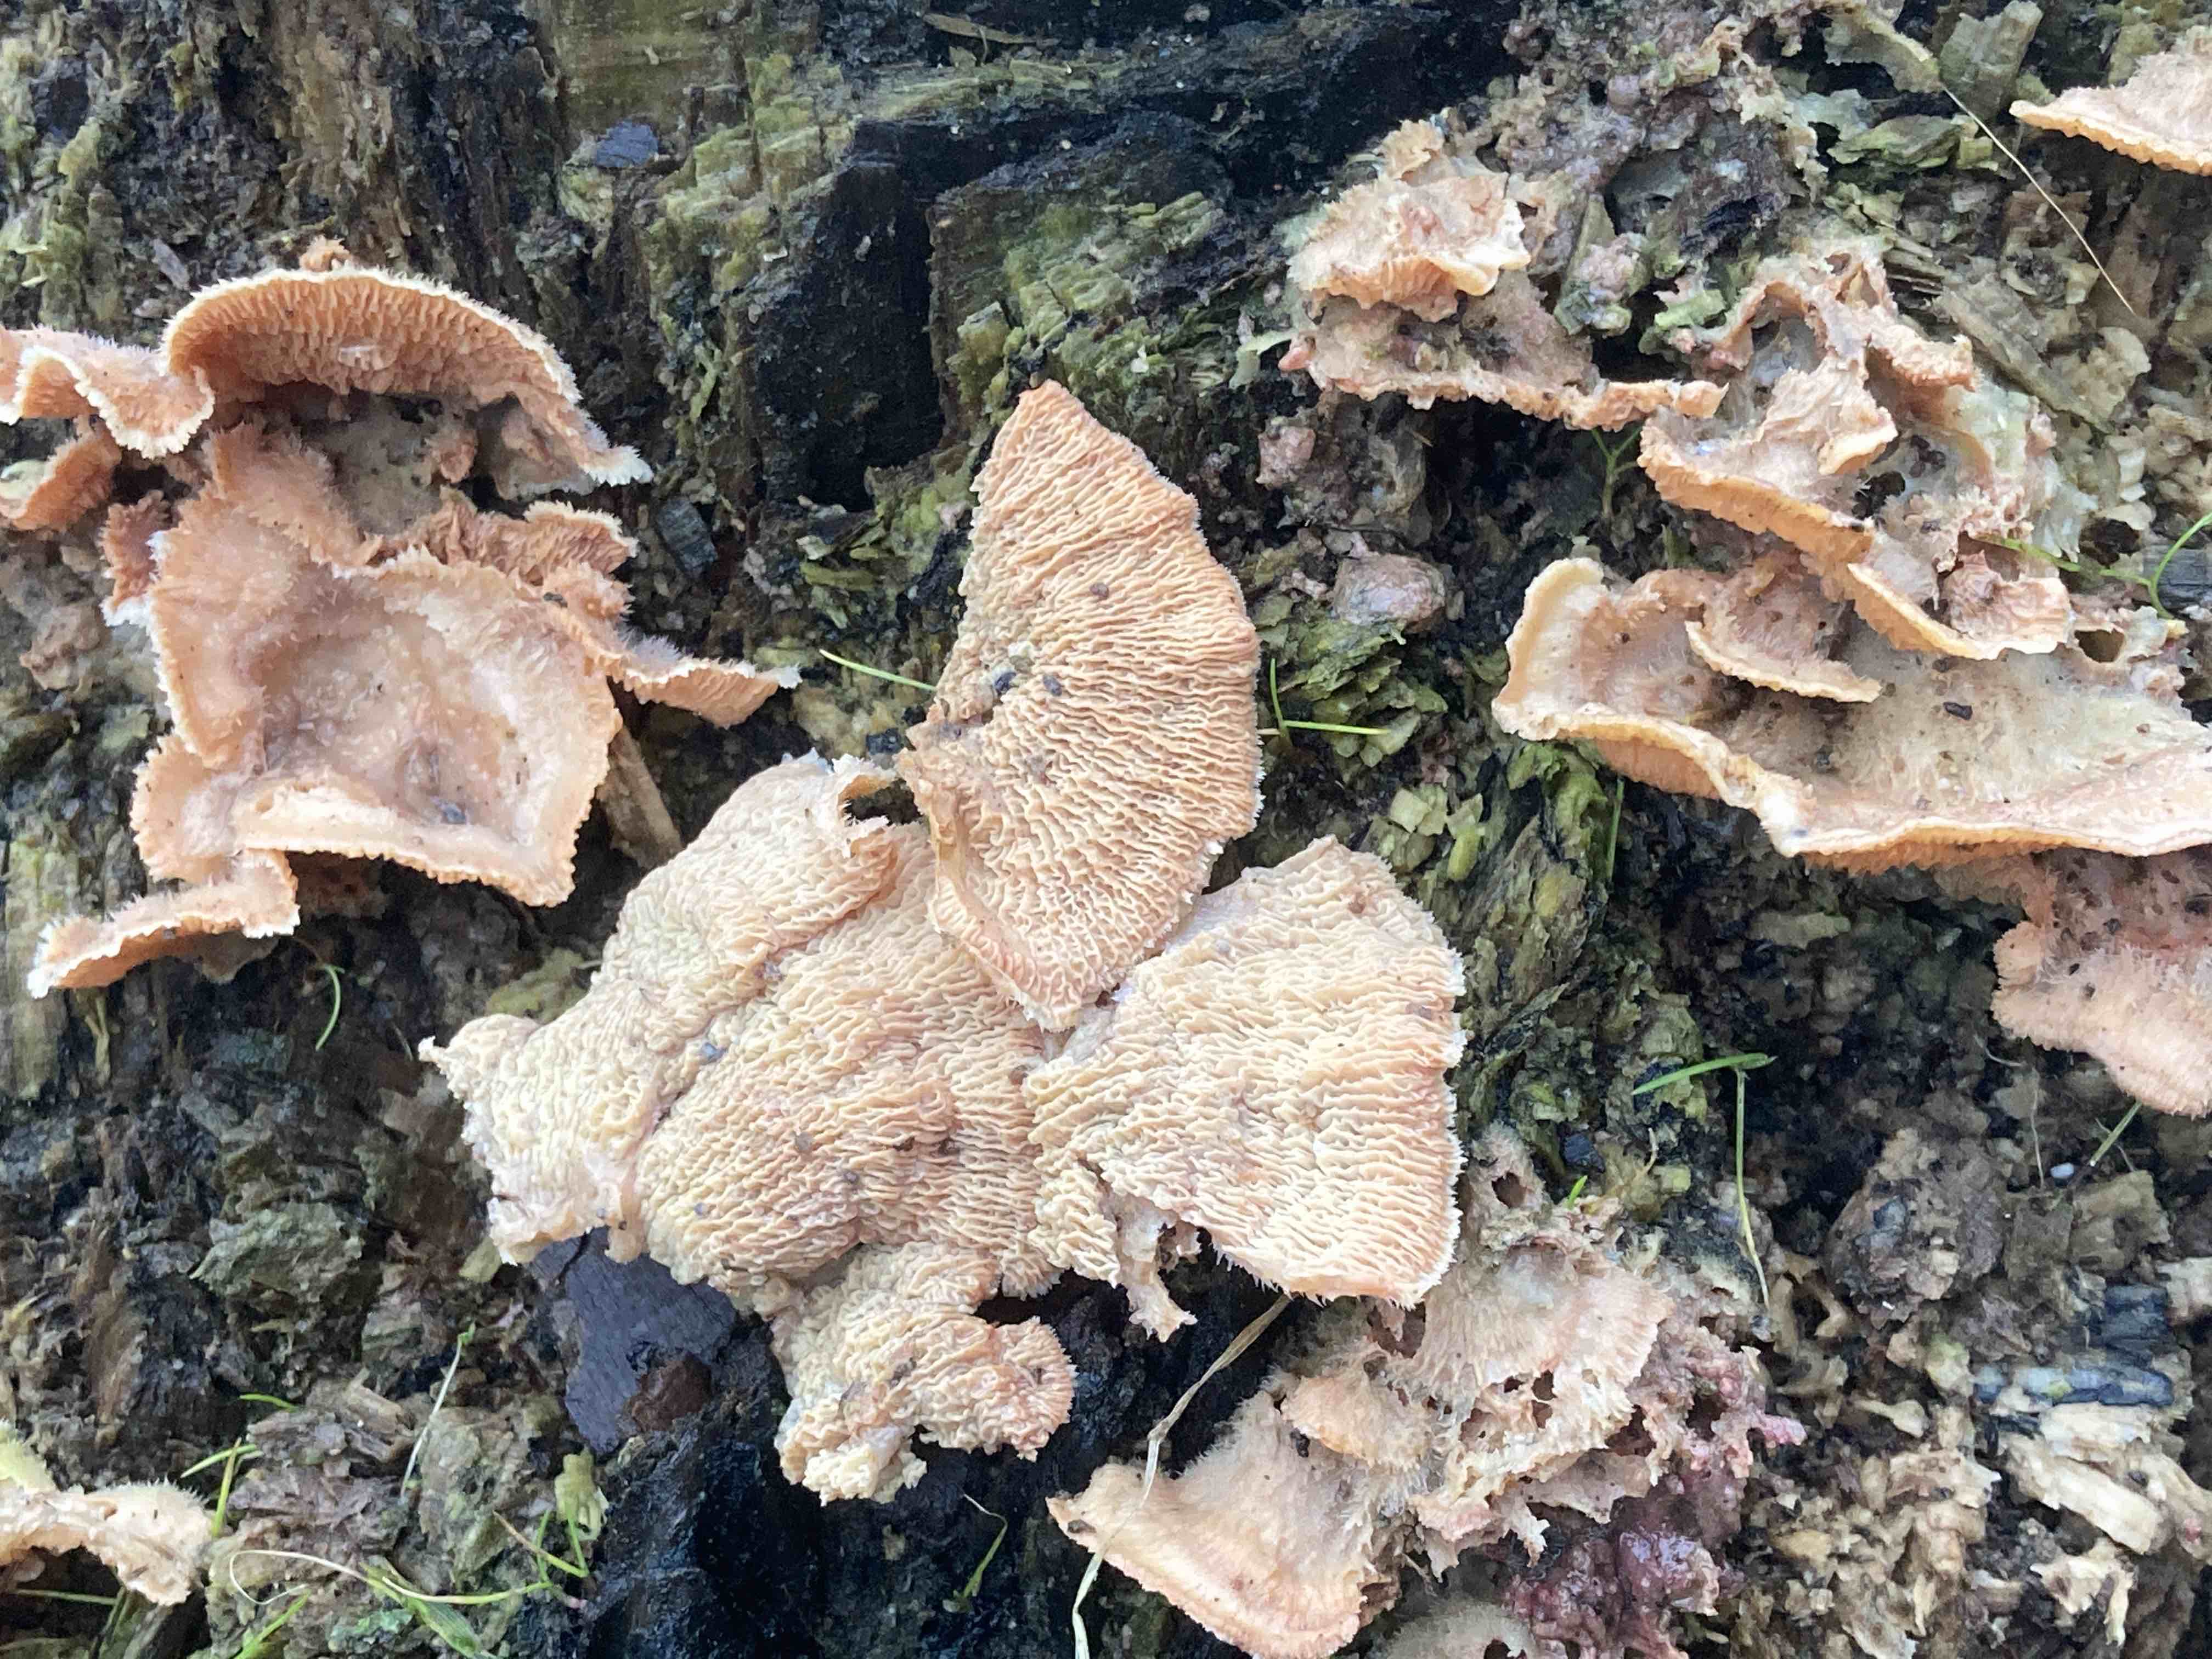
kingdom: Fungi
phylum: Basidiomycota
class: Agaricomycetes
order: Polyporales
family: Meruliaceae
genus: Phlebia
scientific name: Phlebia tremellosa
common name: bævrende åresvamp
